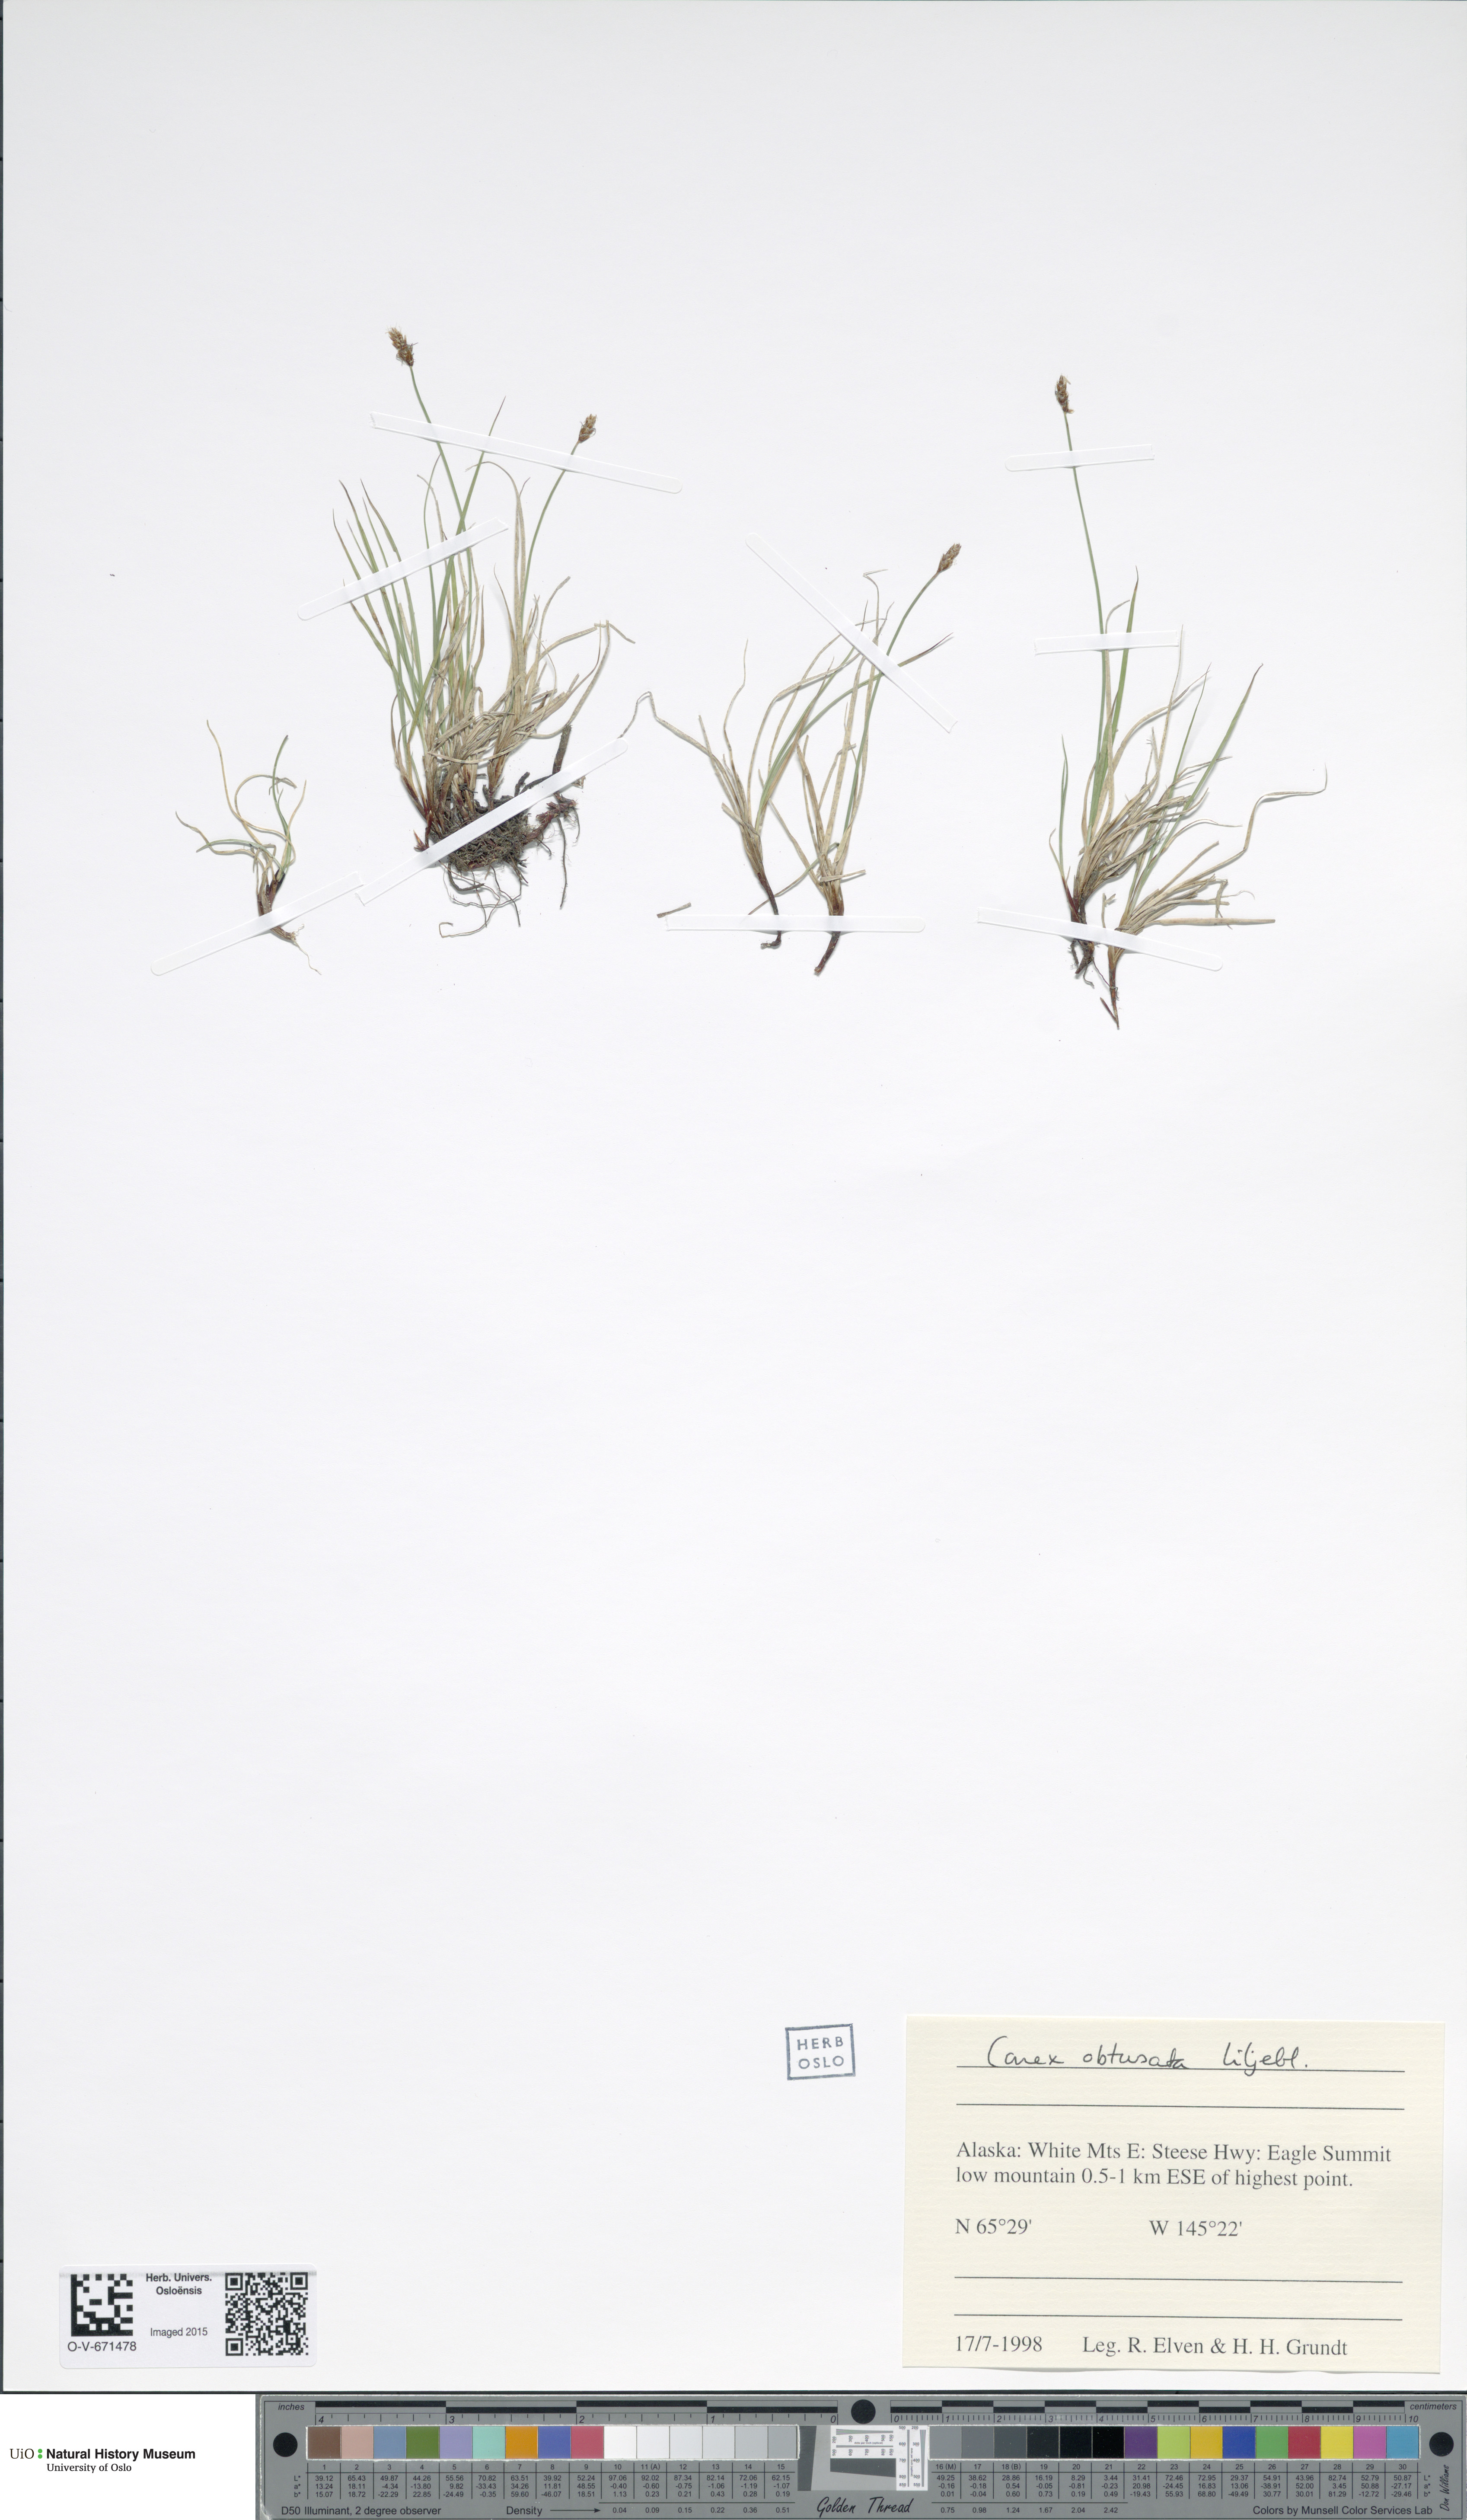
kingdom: Plantae
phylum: Tracheophyta
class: Liliopsida
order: Poales
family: Cyperaceae
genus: Carex
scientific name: Carex obtusata
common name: Blunt sedge
